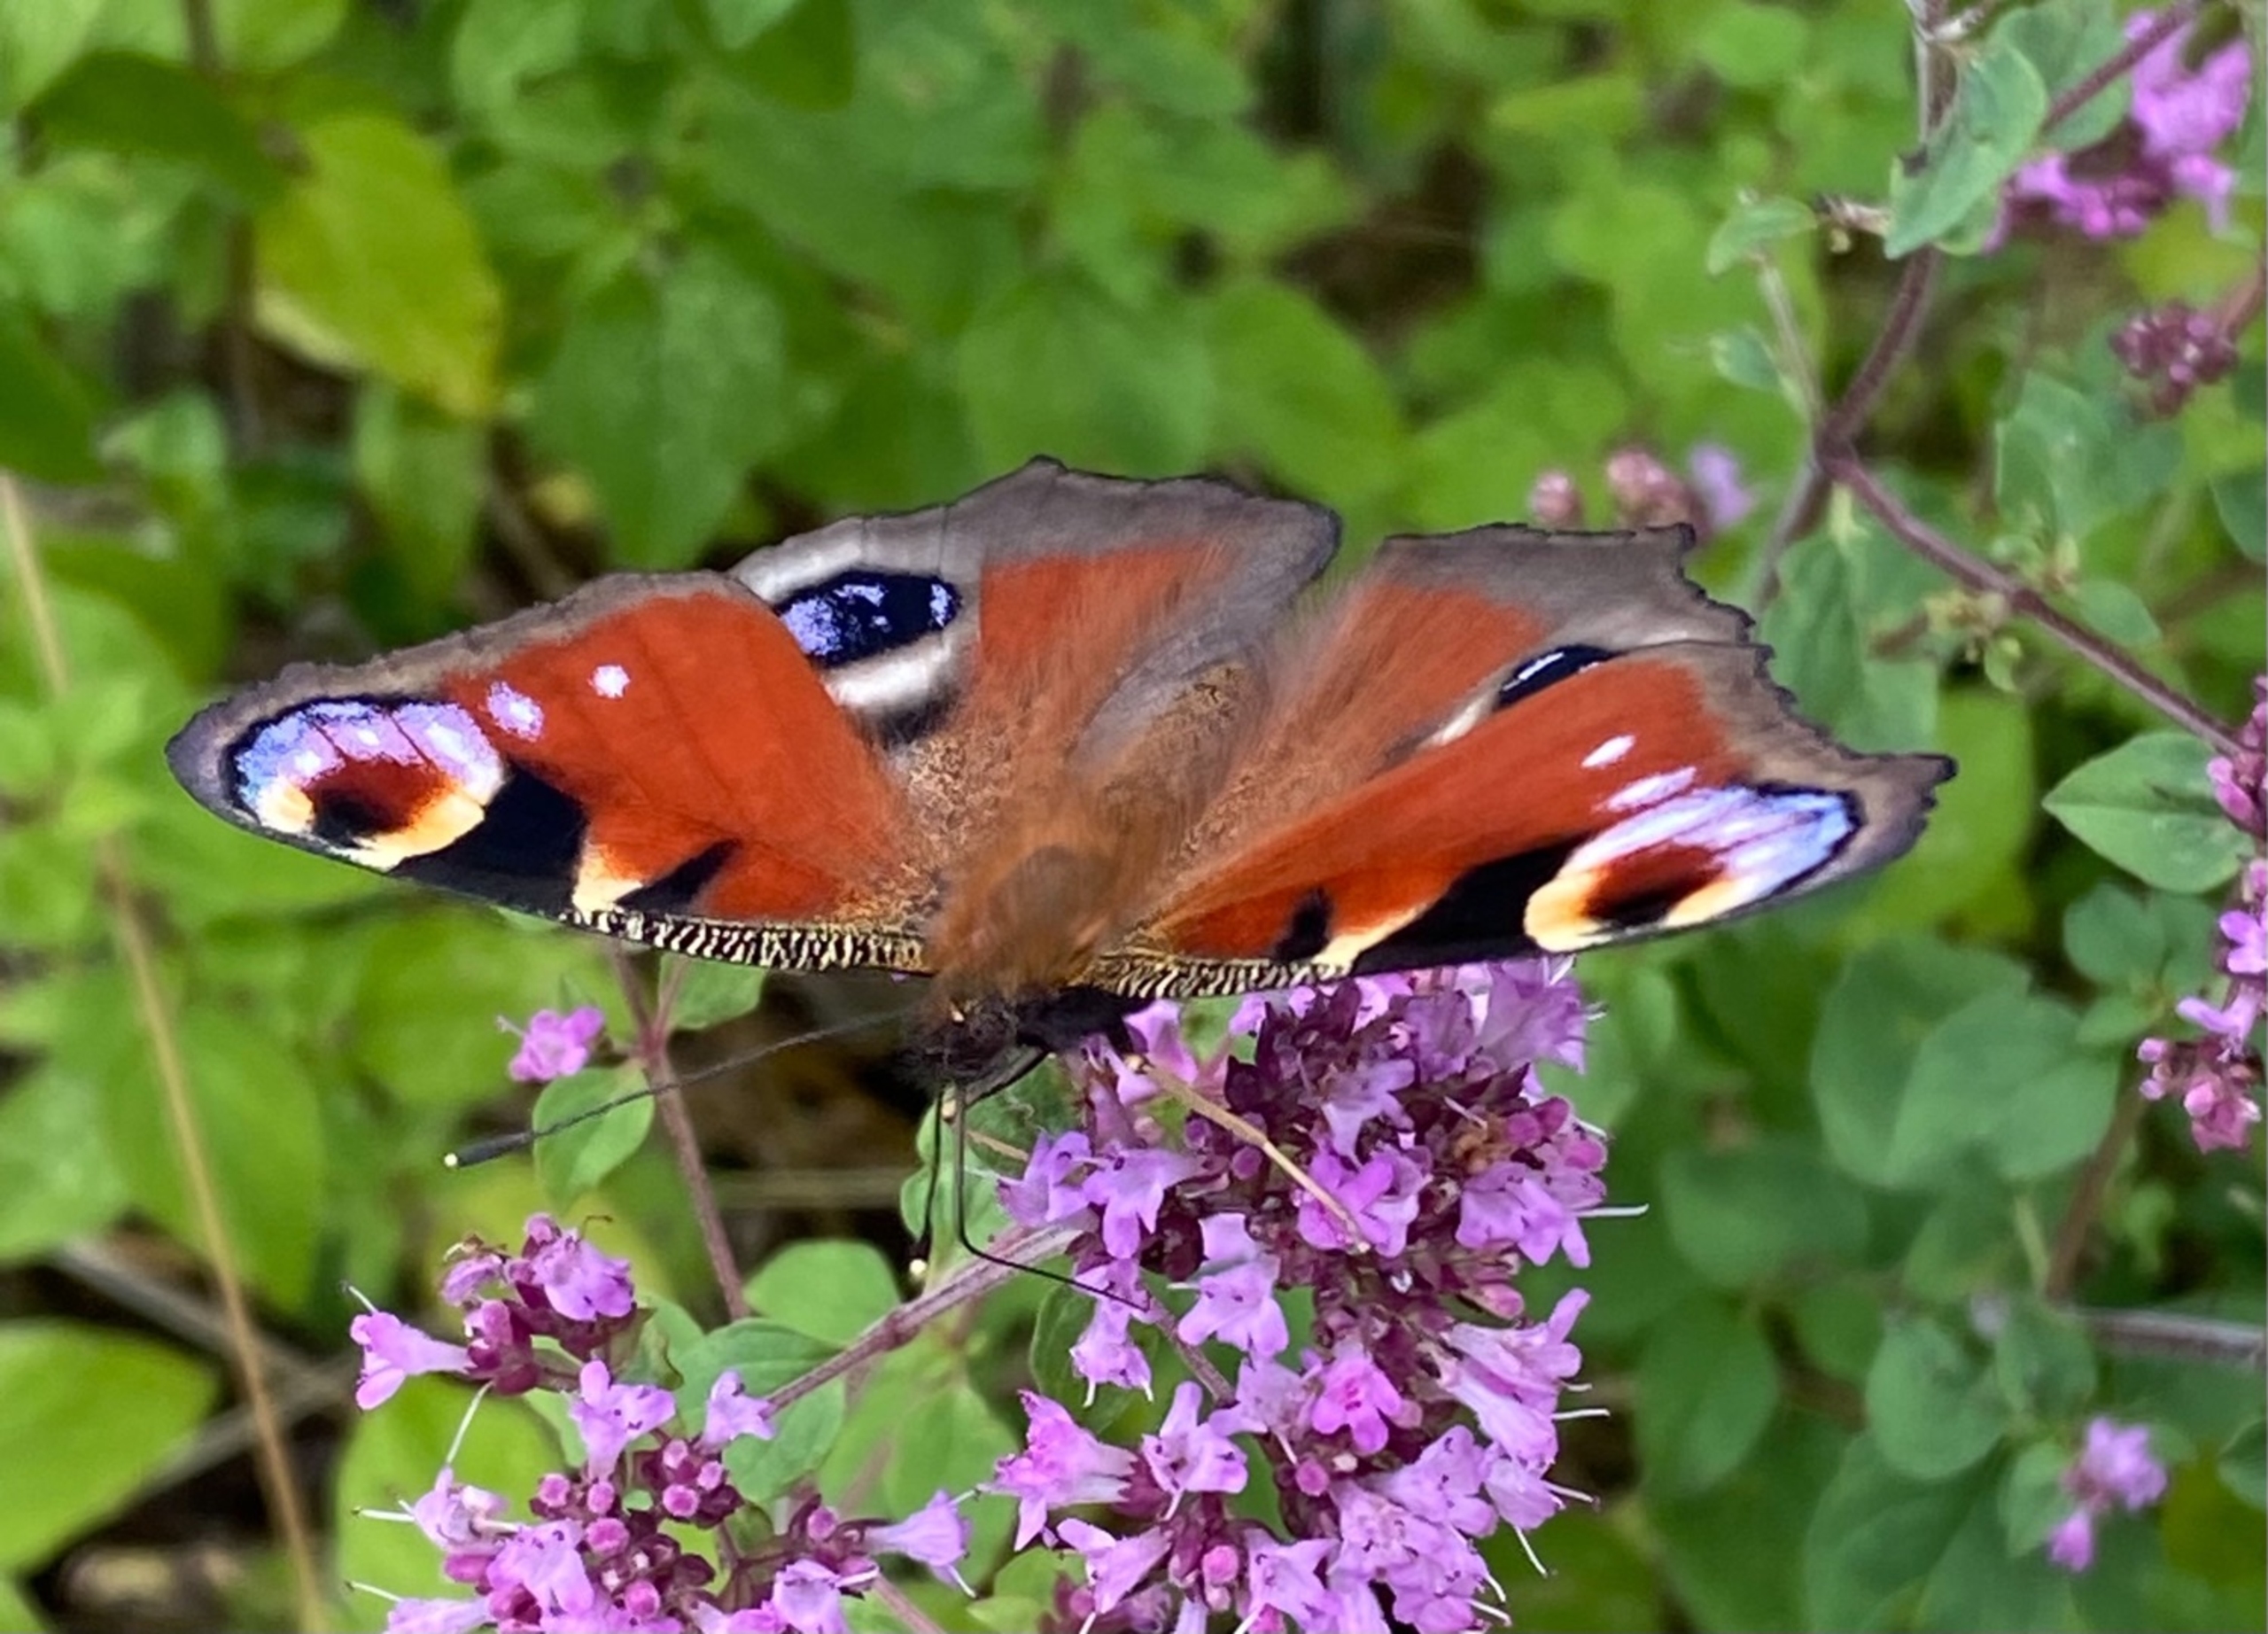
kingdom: Animalia
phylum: Arthropoda
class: Insecta
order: Lepidoptera
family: Nymphalidae
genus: Aglais
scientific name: Aglais io
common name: Dagpåfugleøje
